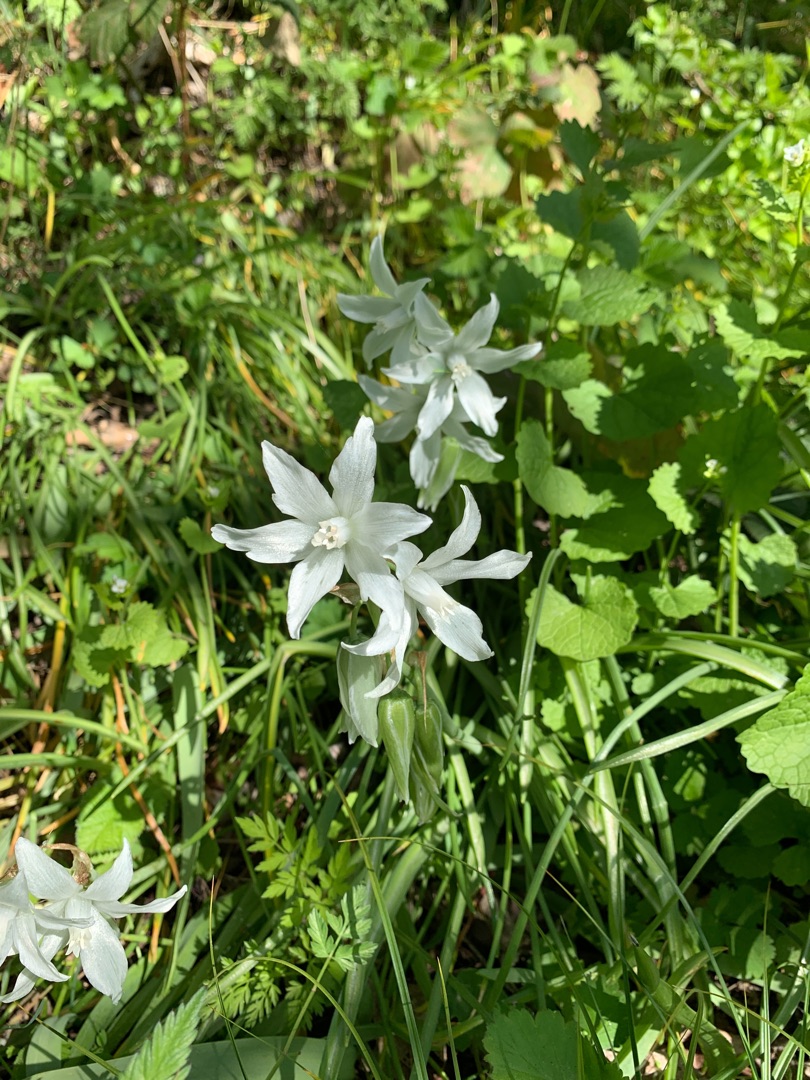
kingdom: Plantae
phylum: Tracheophyta
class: Liliopsida
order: Asparagales
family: Asparagaceae
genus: Ornithogalum
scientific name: Ornithogalum nutans
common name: Nikkende fuglemælk
